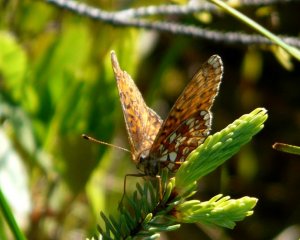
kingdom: Animalia
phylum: Arthropoda
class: Insecta
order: Lepidoptera
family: Nymphalidae
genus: Boloria
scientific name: Boloria eunomia
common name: Bog Fritillary
